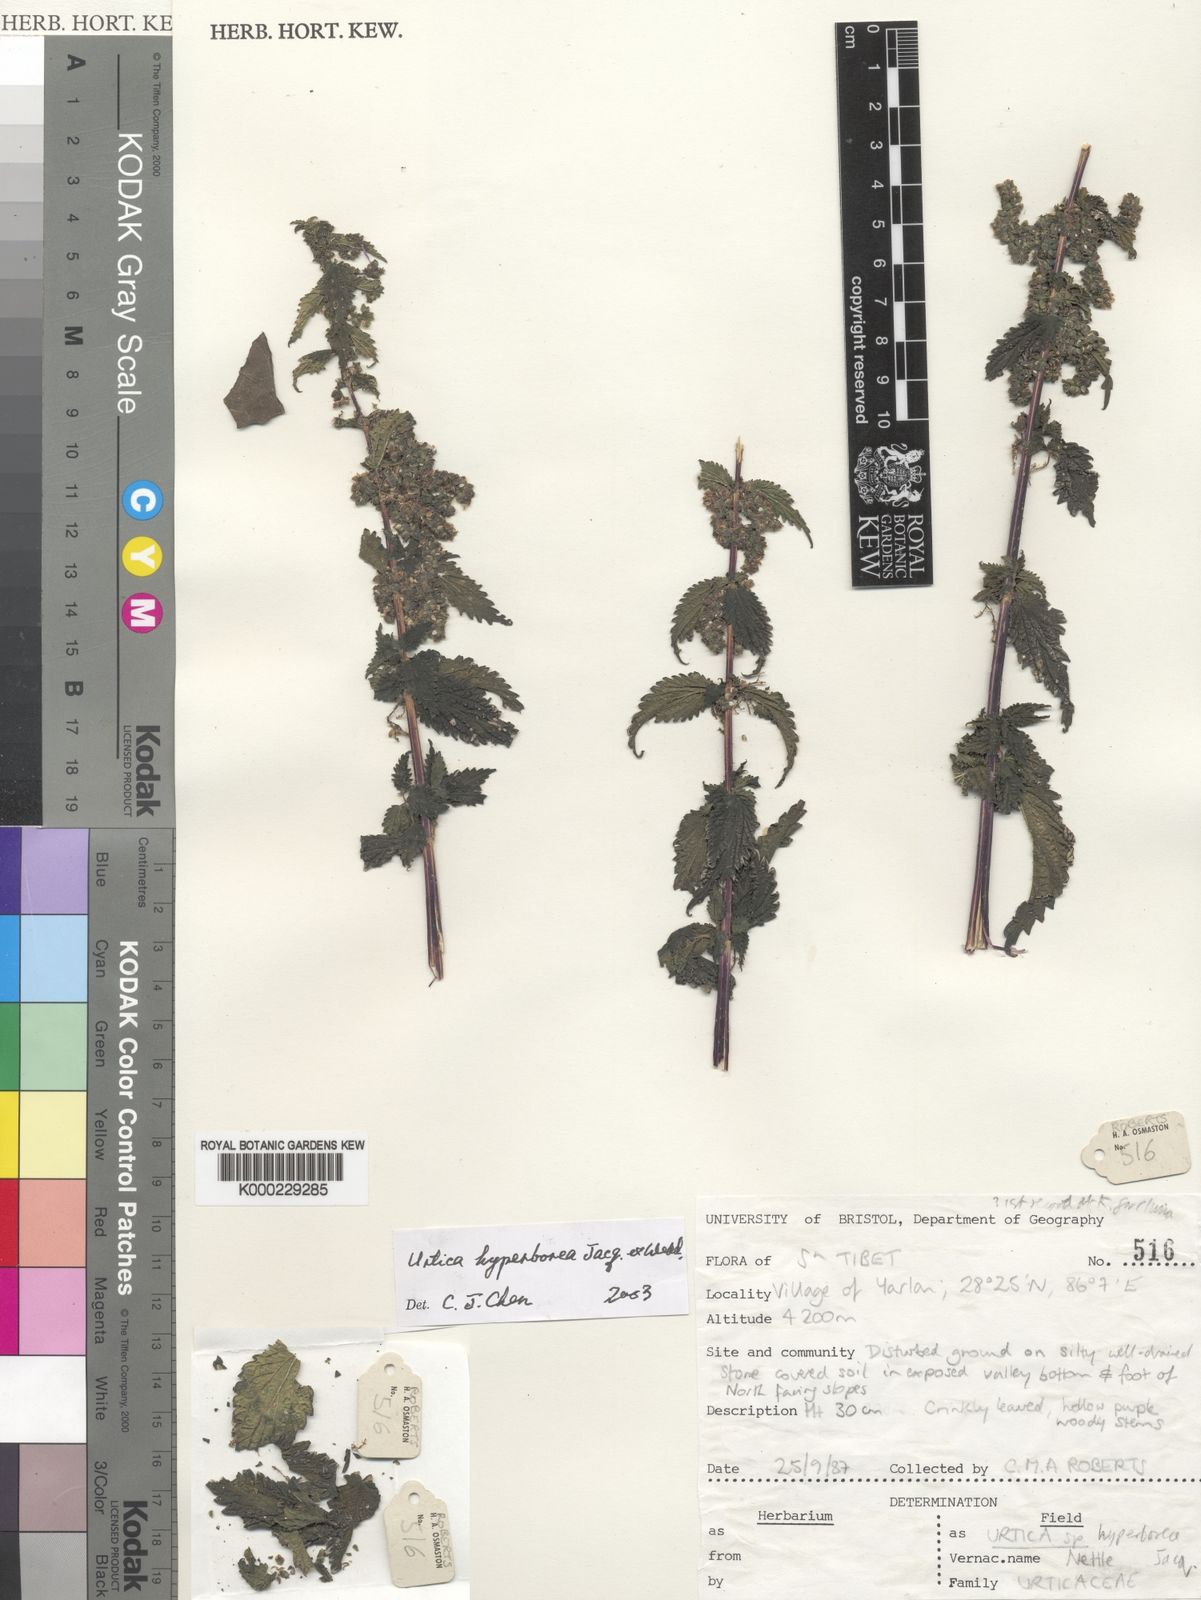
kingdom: Plantae
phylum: Tracheophyta
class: Magnoliopsida
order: Rosales
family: Urticaceae
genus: Urtica
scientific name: Urtica hyperborea
